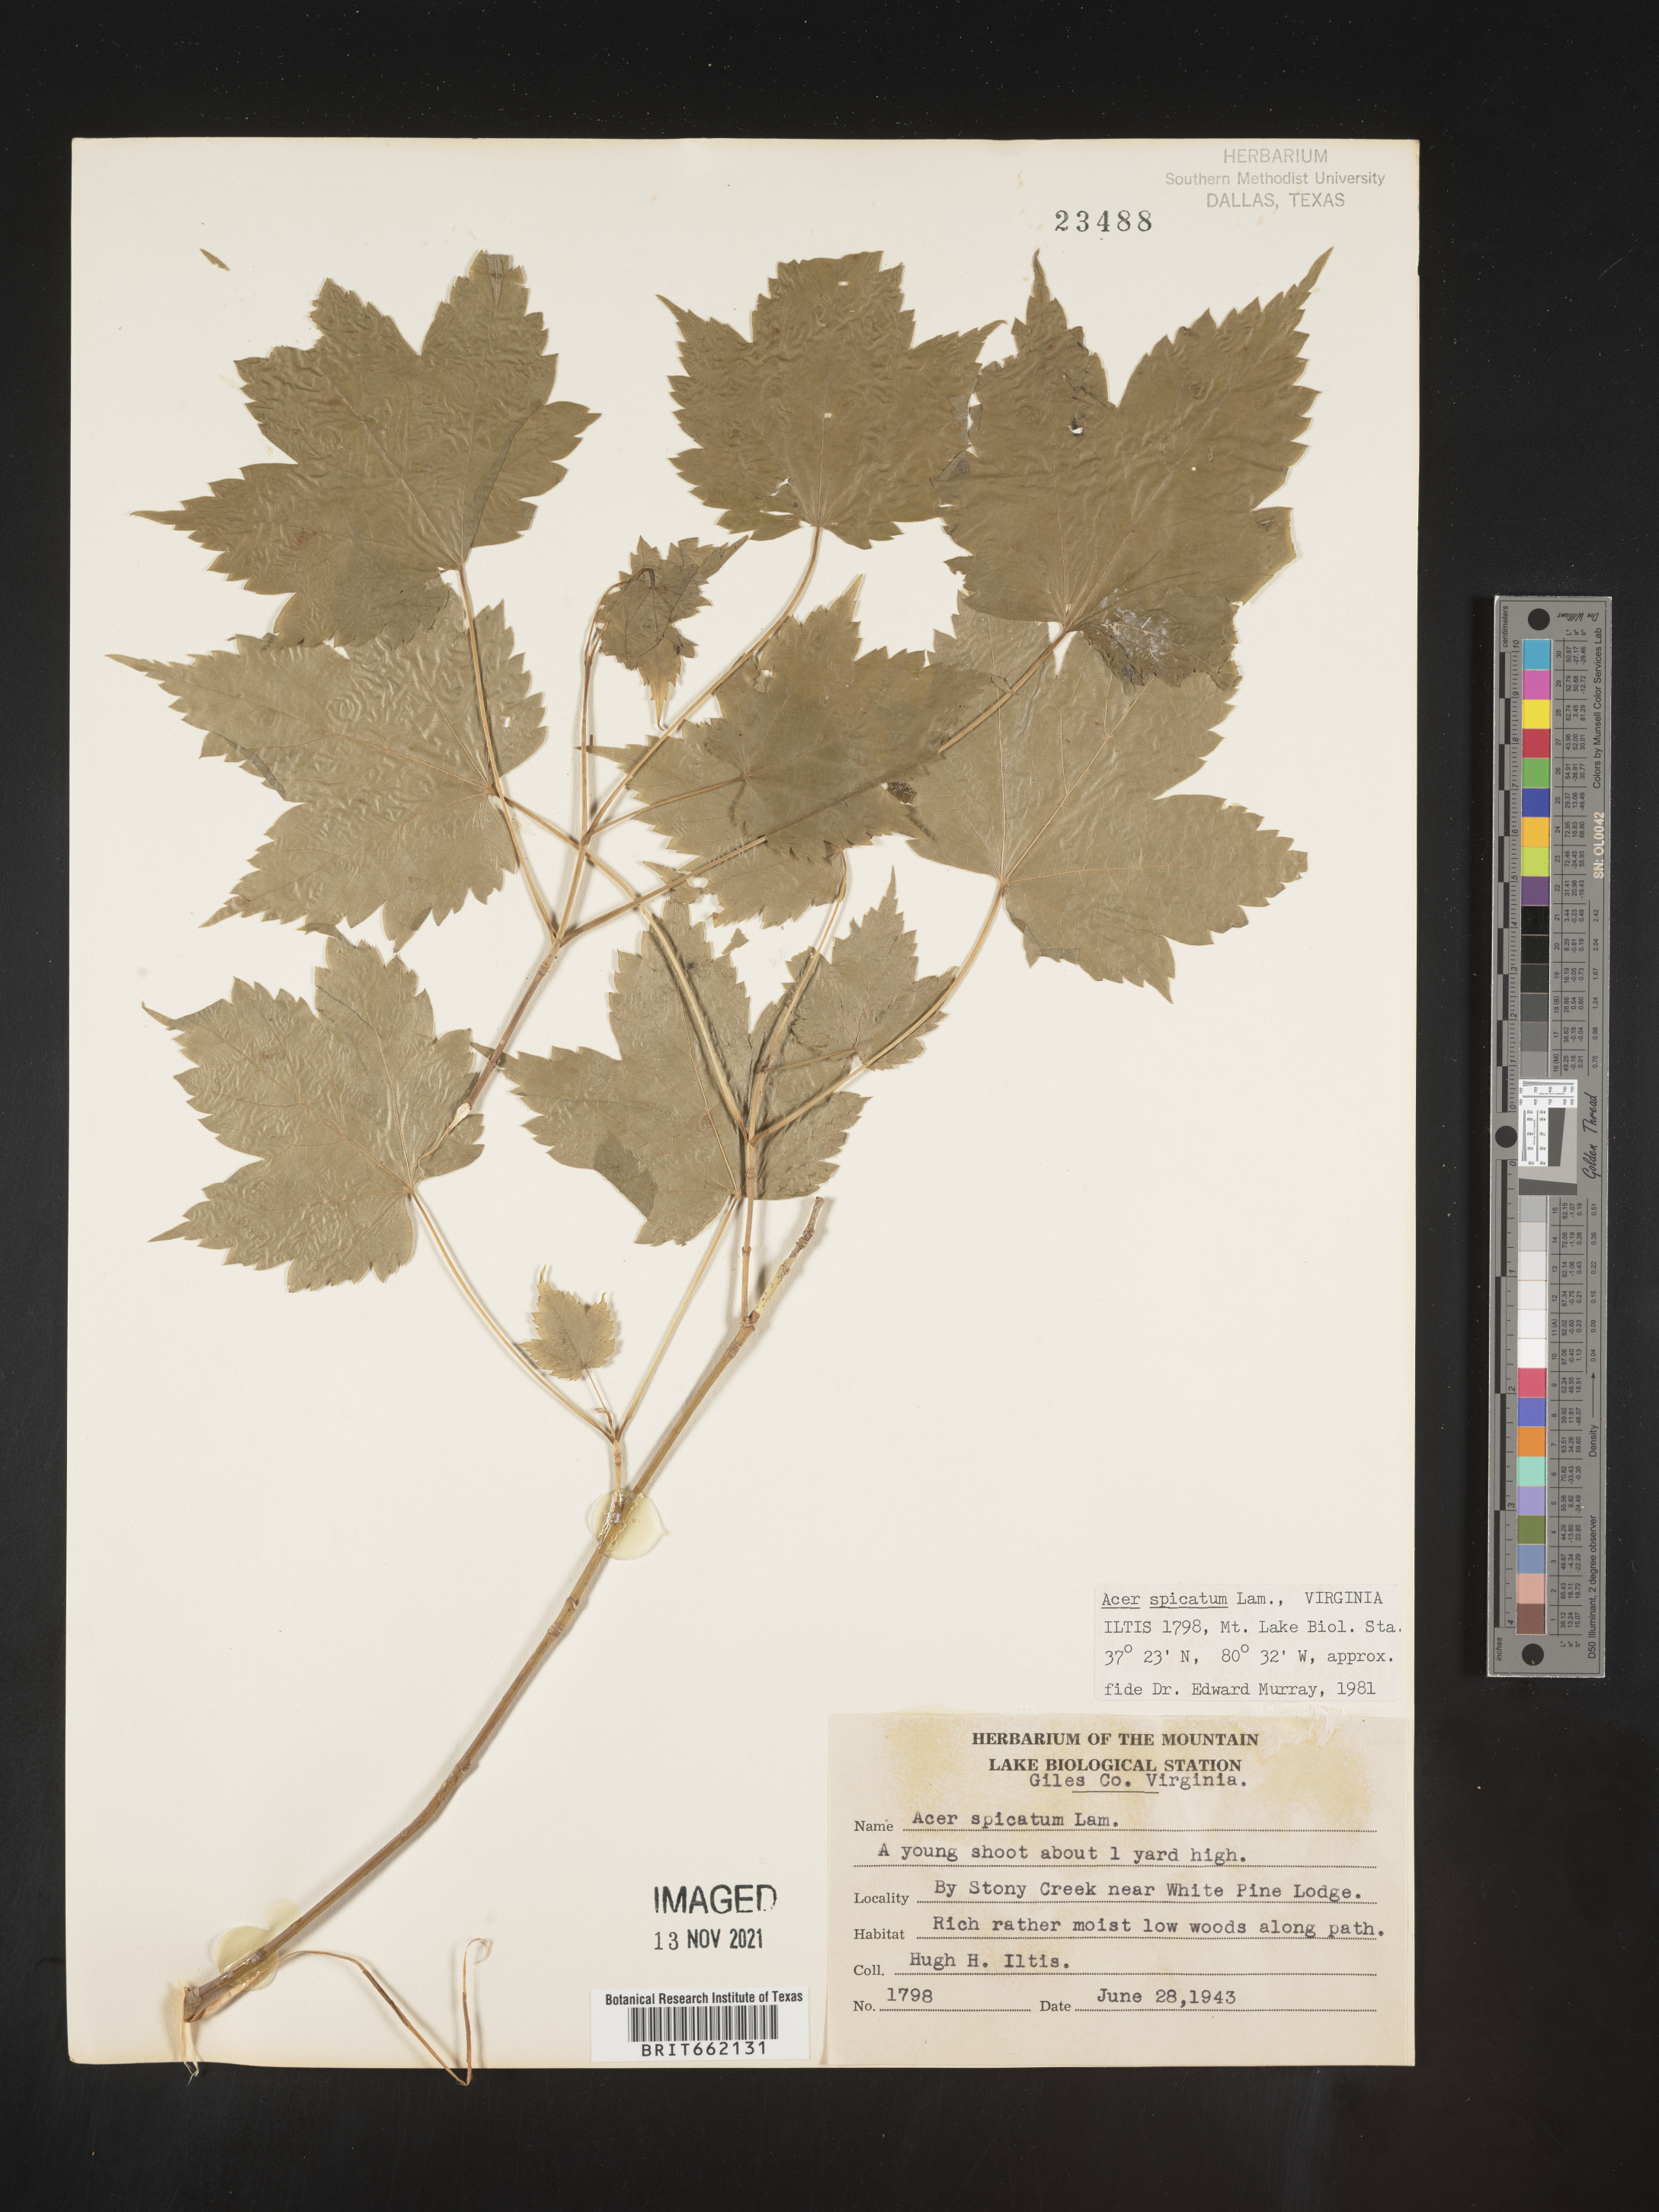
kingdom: Plantae
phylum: Tracheophyta
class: Magnoliopsida
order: Sapindales
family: Sapindaceae
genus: Acer
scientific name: Acer spicatum
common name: Mountain maple
